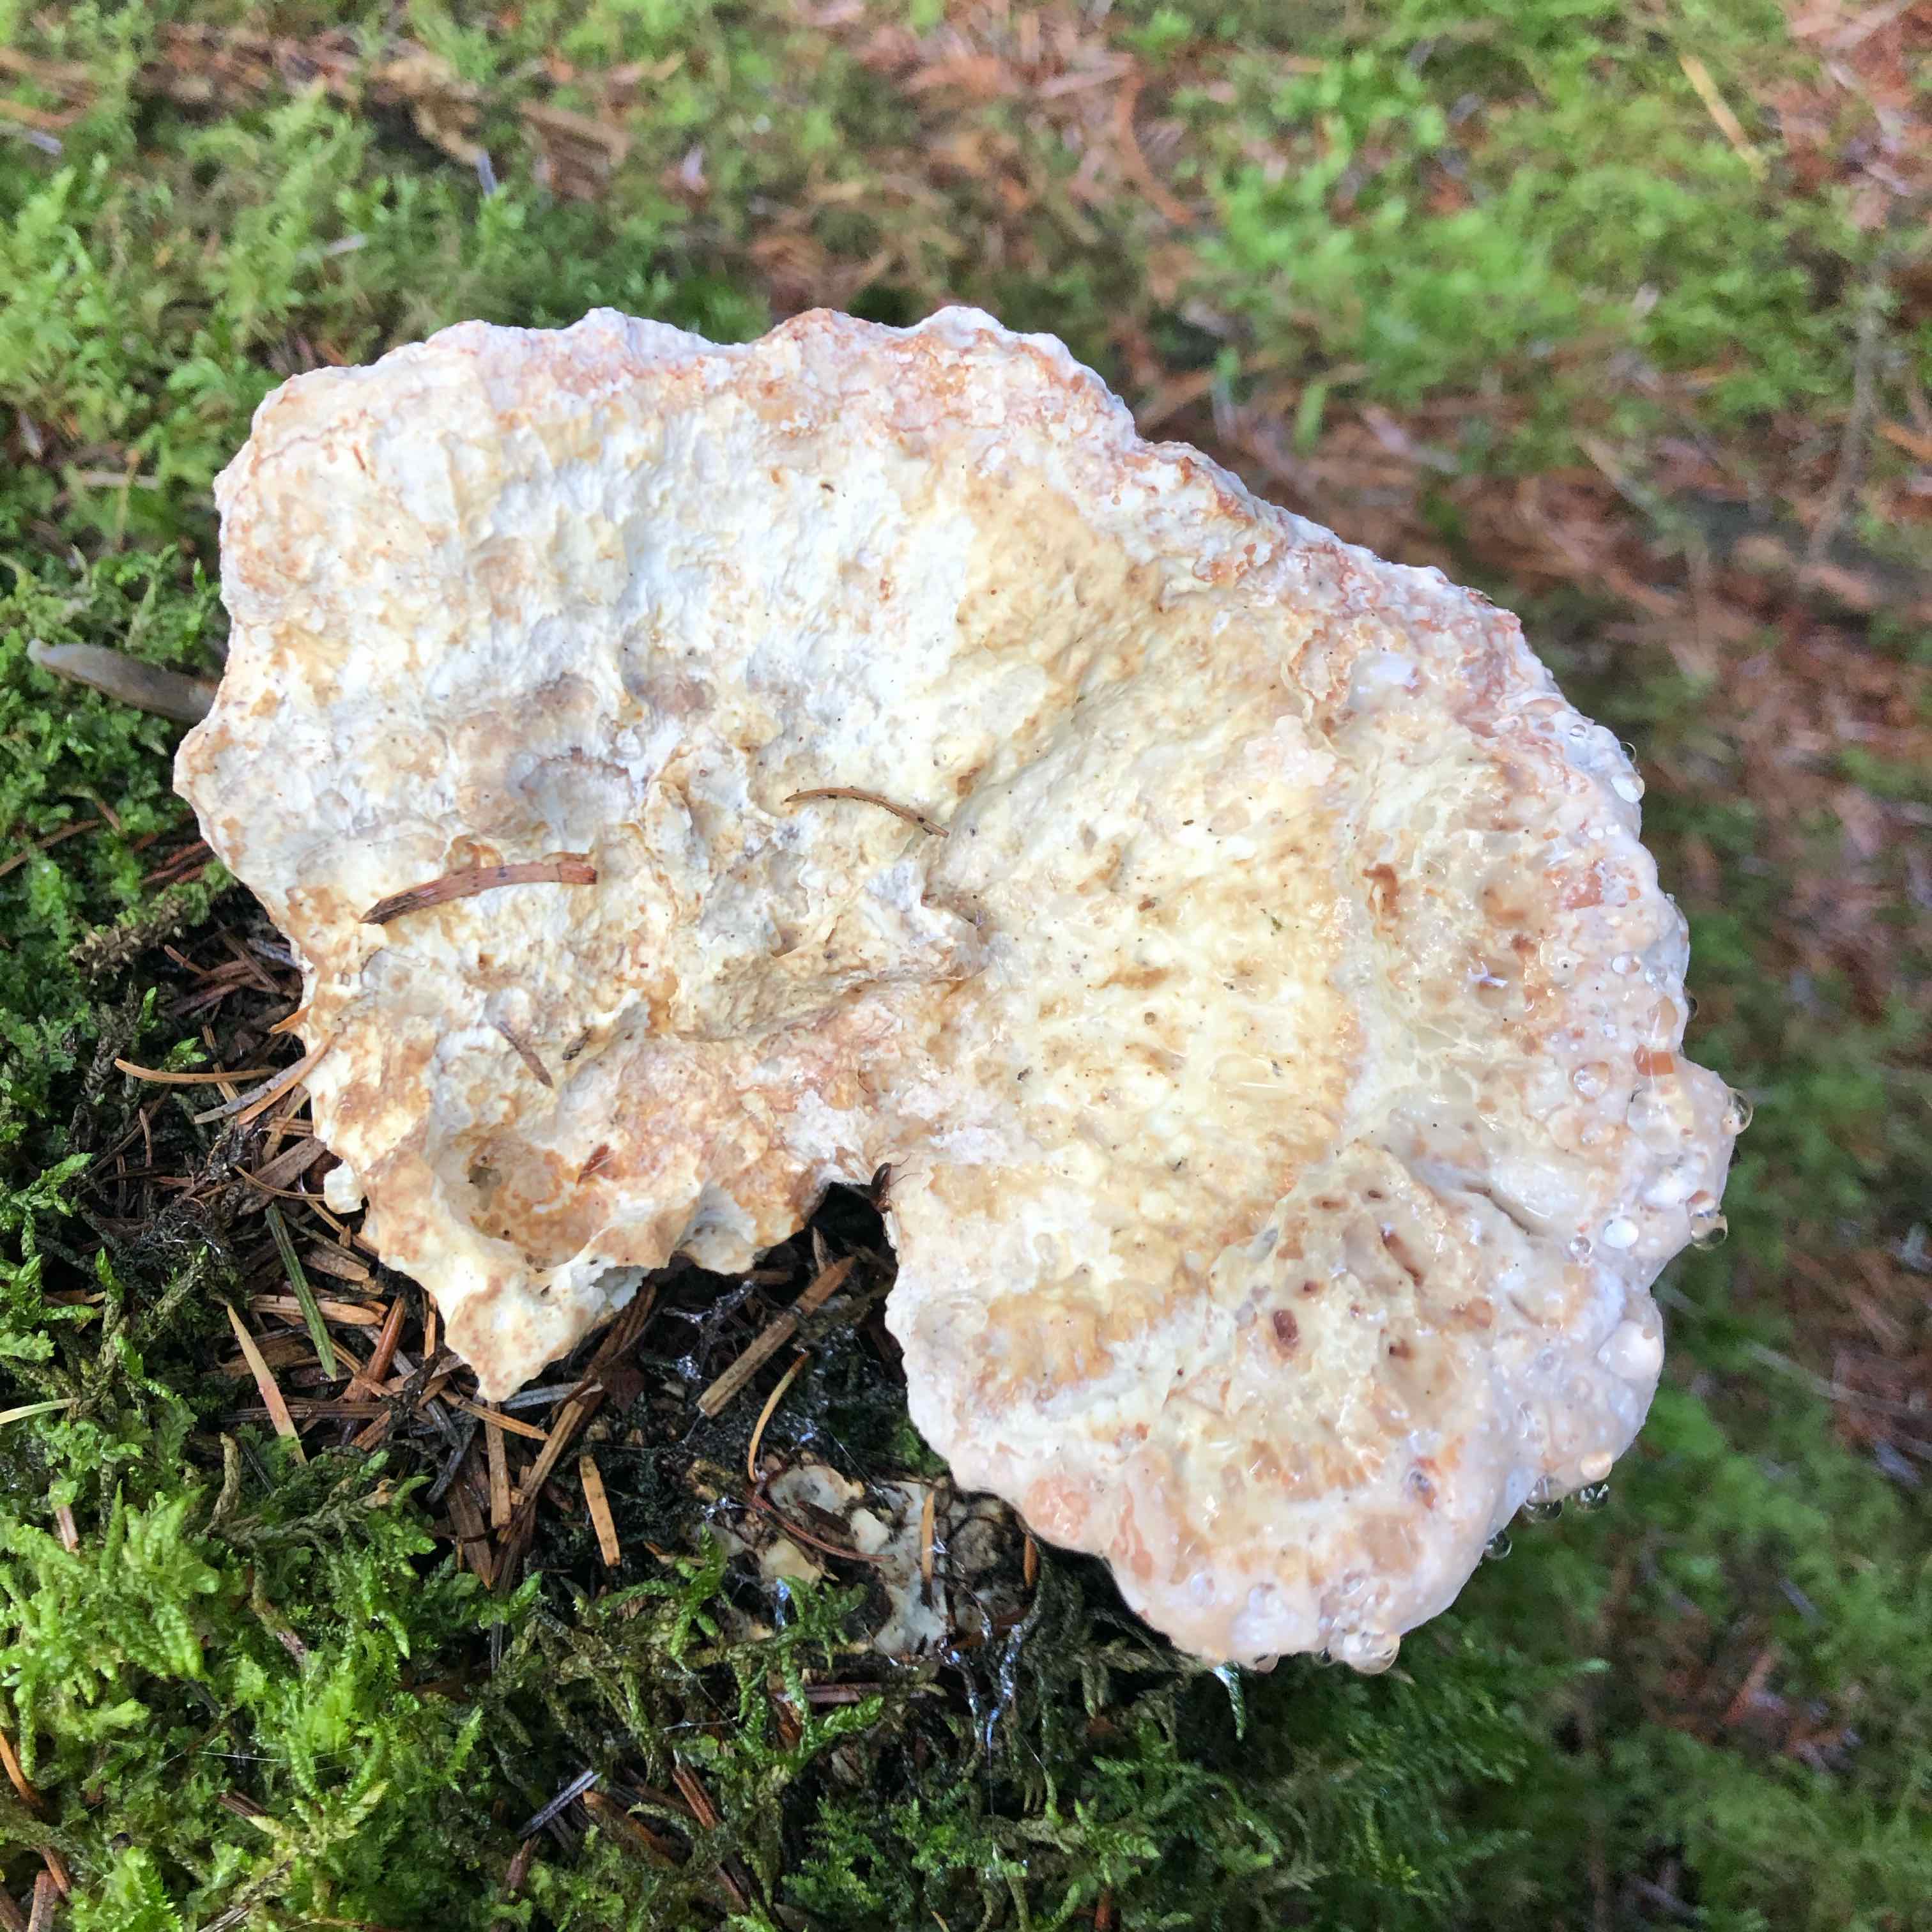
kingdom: Fungi
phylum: Basidiomycota
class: Agaricomycetes
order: Polyporales
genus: Calcipostia
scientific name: Calcipostia guttulata
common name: dråbe-kødporesvamp
